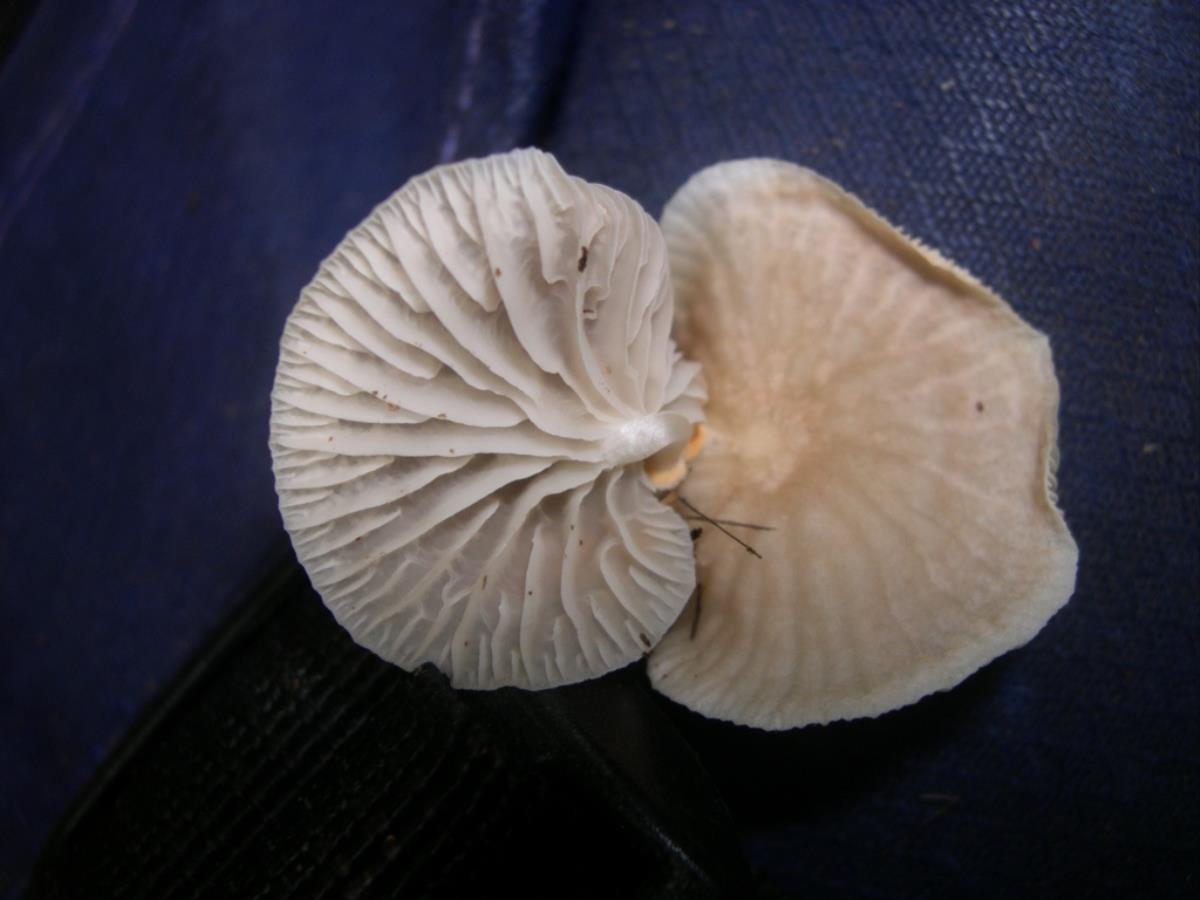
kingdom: Fungi
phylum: Basidiomycota
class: Agaricomycetes
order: Agaricales
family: Omphalotaceae
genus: Marasmiellus
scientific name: Marasmiellus inoderma
